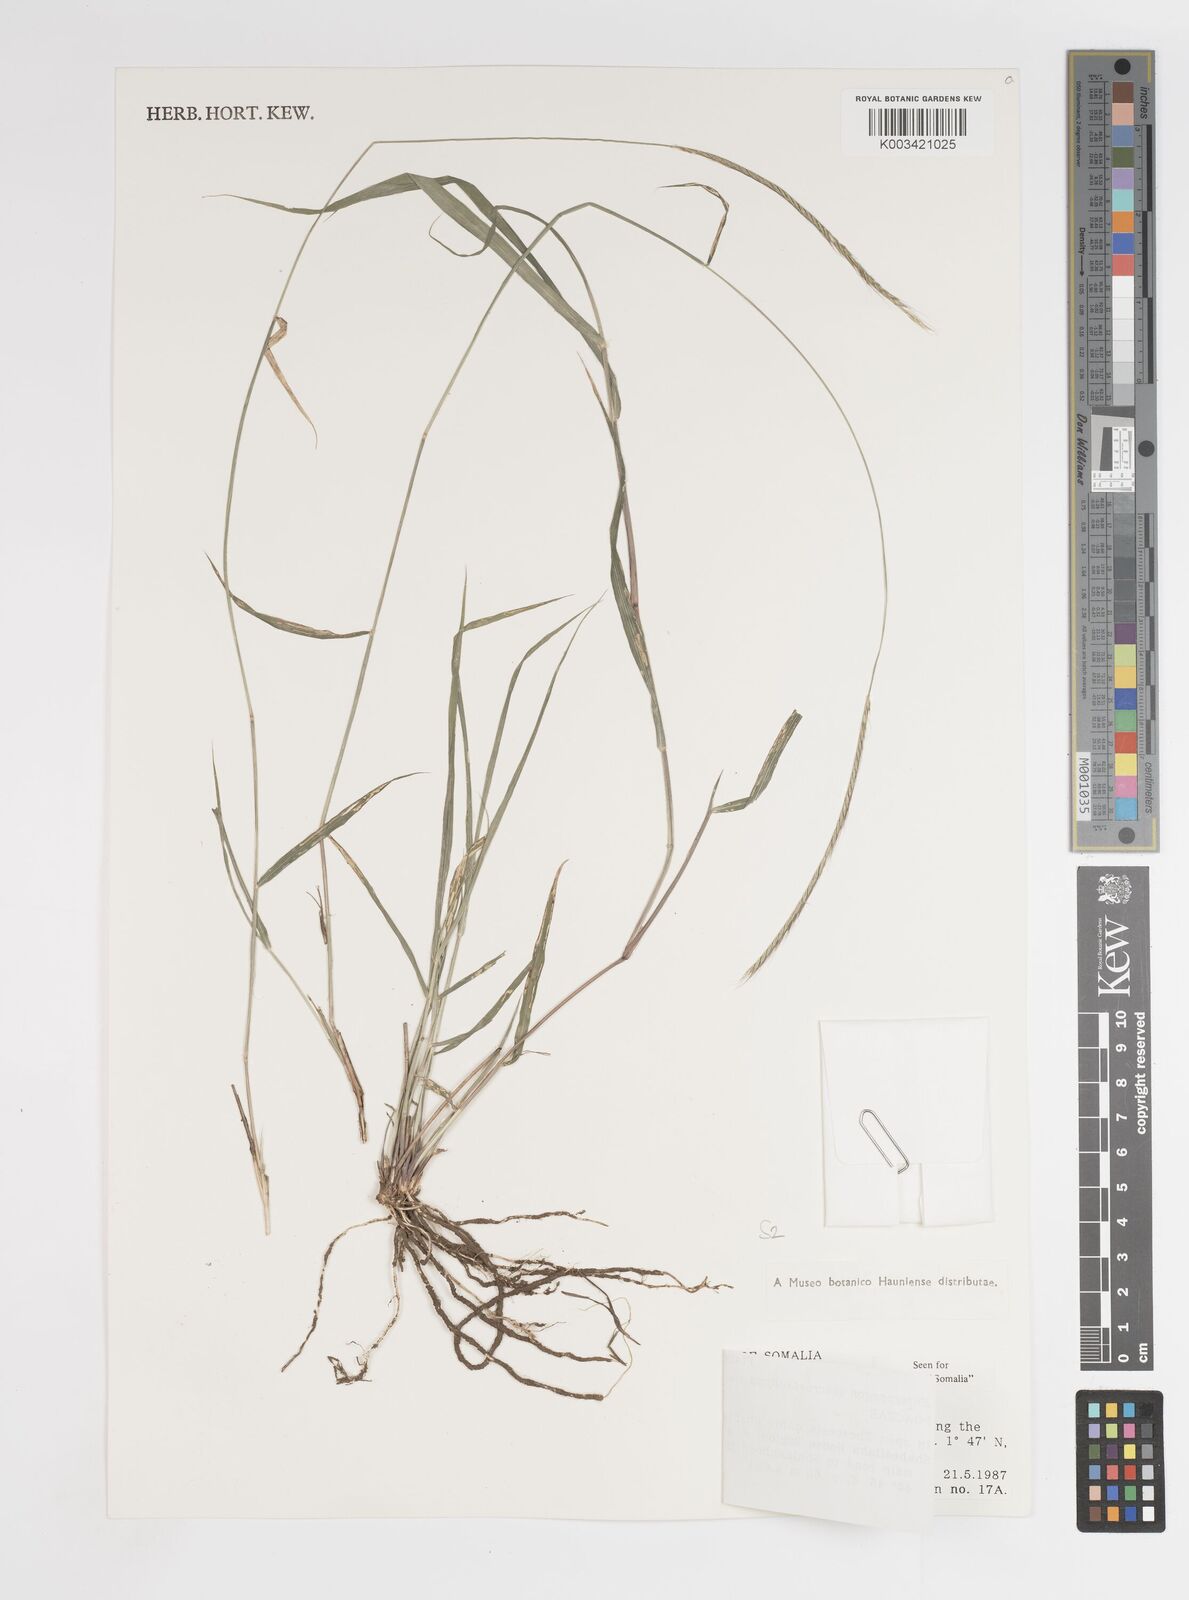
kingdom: Plantae
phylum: Tracheophyta
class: Liliopsida
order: Poales
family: Poaceae
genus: Enteropogon
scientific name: Enteropogon macrostachyus
